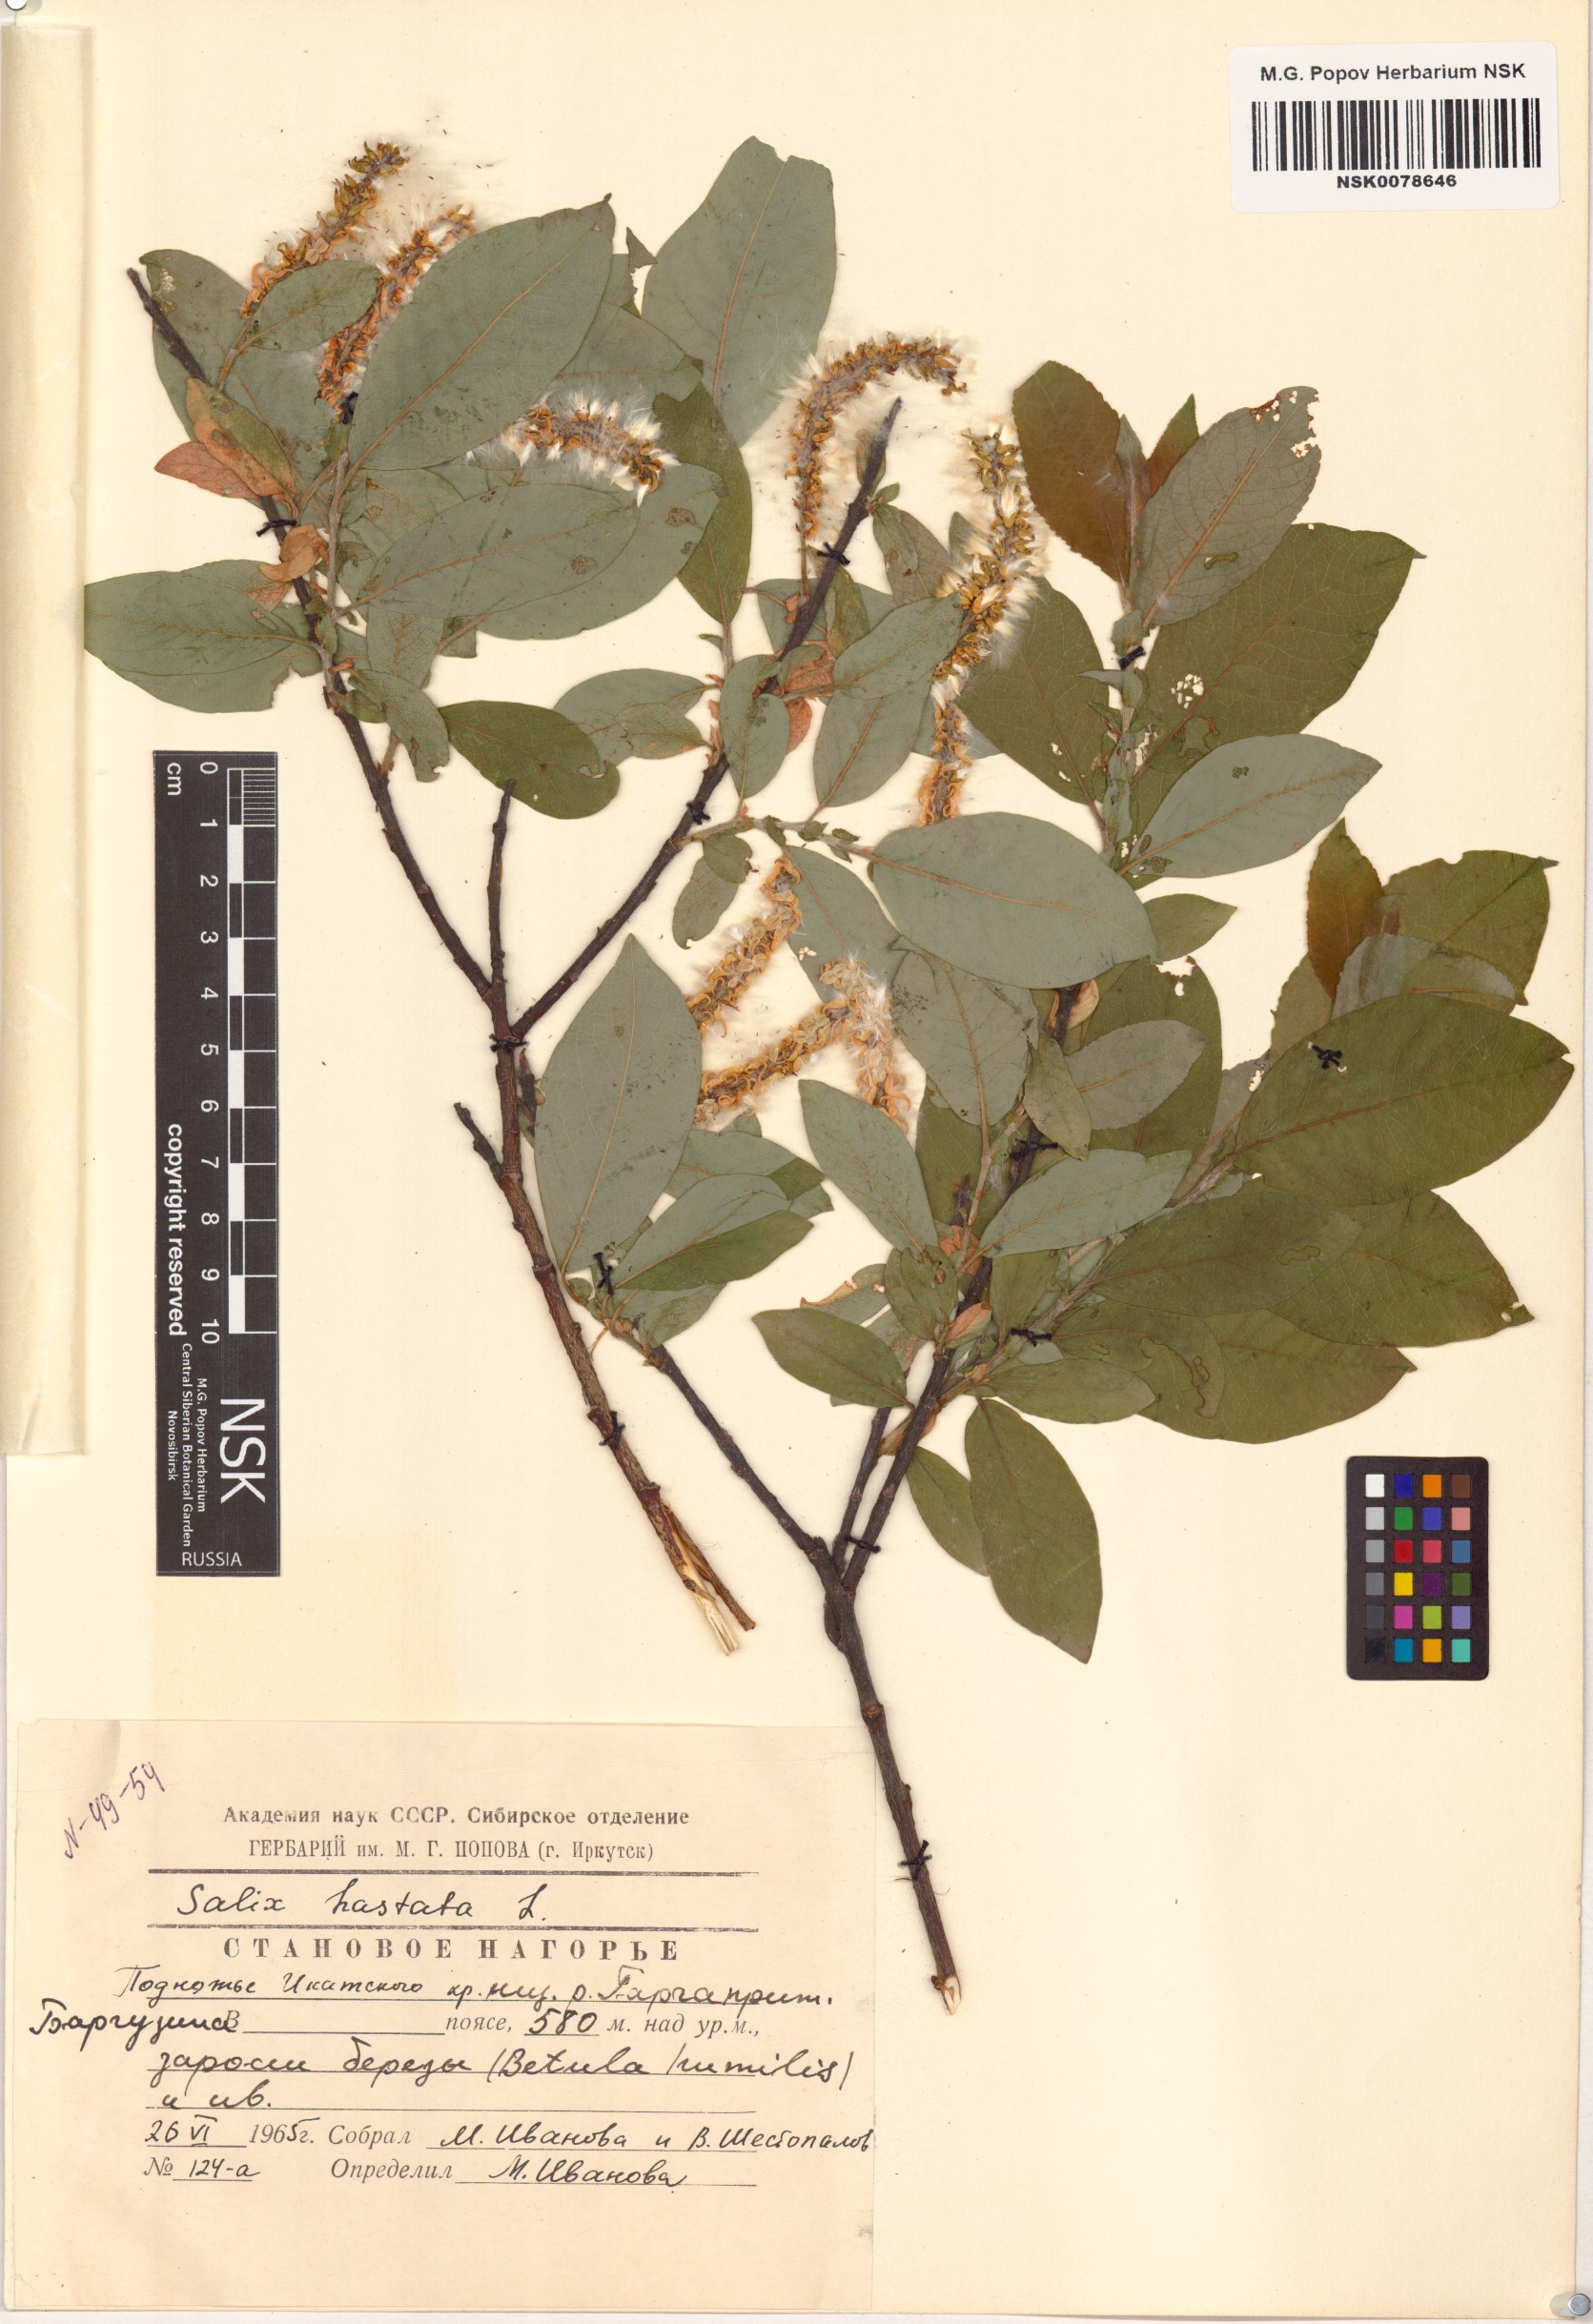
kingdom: Plantae
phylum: Tracheophyta
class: Magnoliopsida
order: Malpighiales
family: Salicaceae
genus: Salix
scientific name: Salix hastata
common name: Halberd willow
